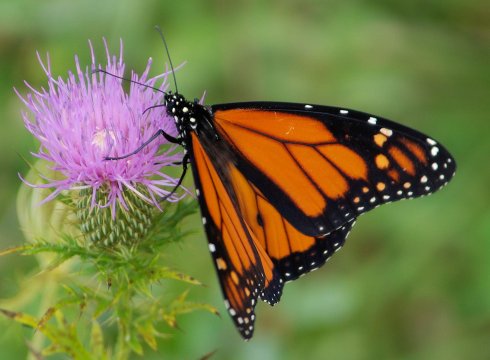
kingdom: Animalia
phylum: Arthropoda
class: Insecta
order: Lepidoptera
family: Nymphalidae
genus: Danaus
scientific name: Danaus plexippus
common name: Monarch
